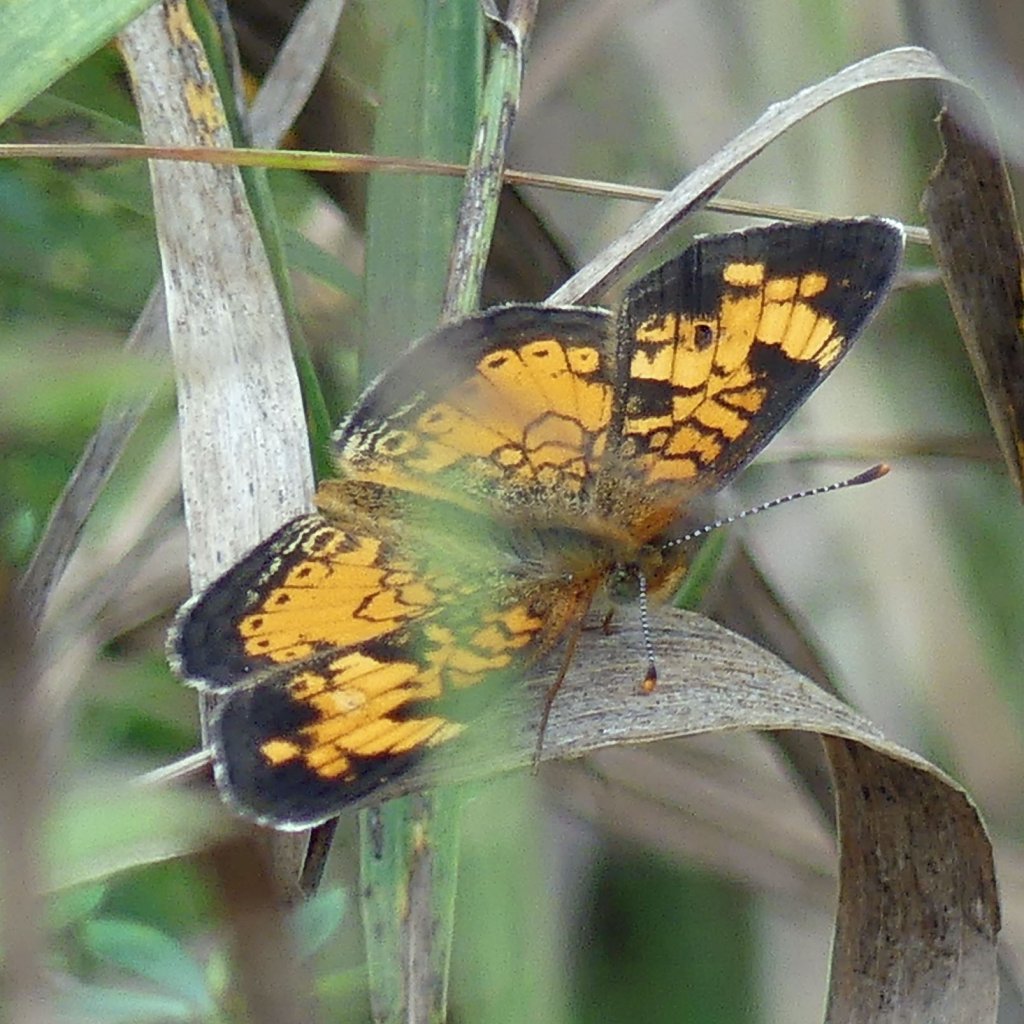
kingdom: Animalia
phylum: Arthropoda
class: Insecta
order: Lepidoptera
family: Nymphalidae
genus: Phyciodes
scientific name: Phyciodes tharos
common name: Northern Crescent
